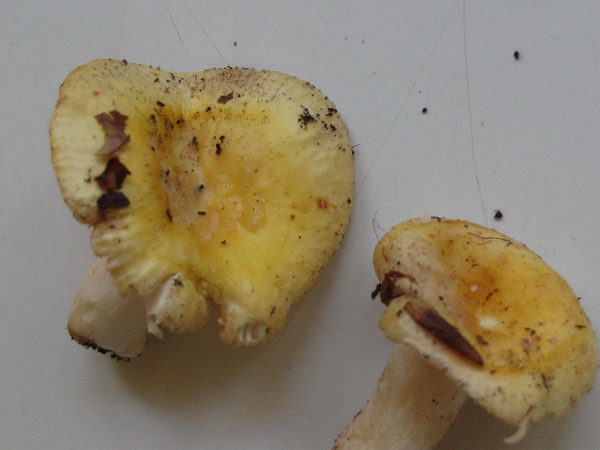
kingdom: Fungi
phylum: Basidiomycota
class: Agaricomycetes
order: Russulales
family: Russulaceae
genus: Russula
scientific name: Russula solaris
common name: sol-skørhat
